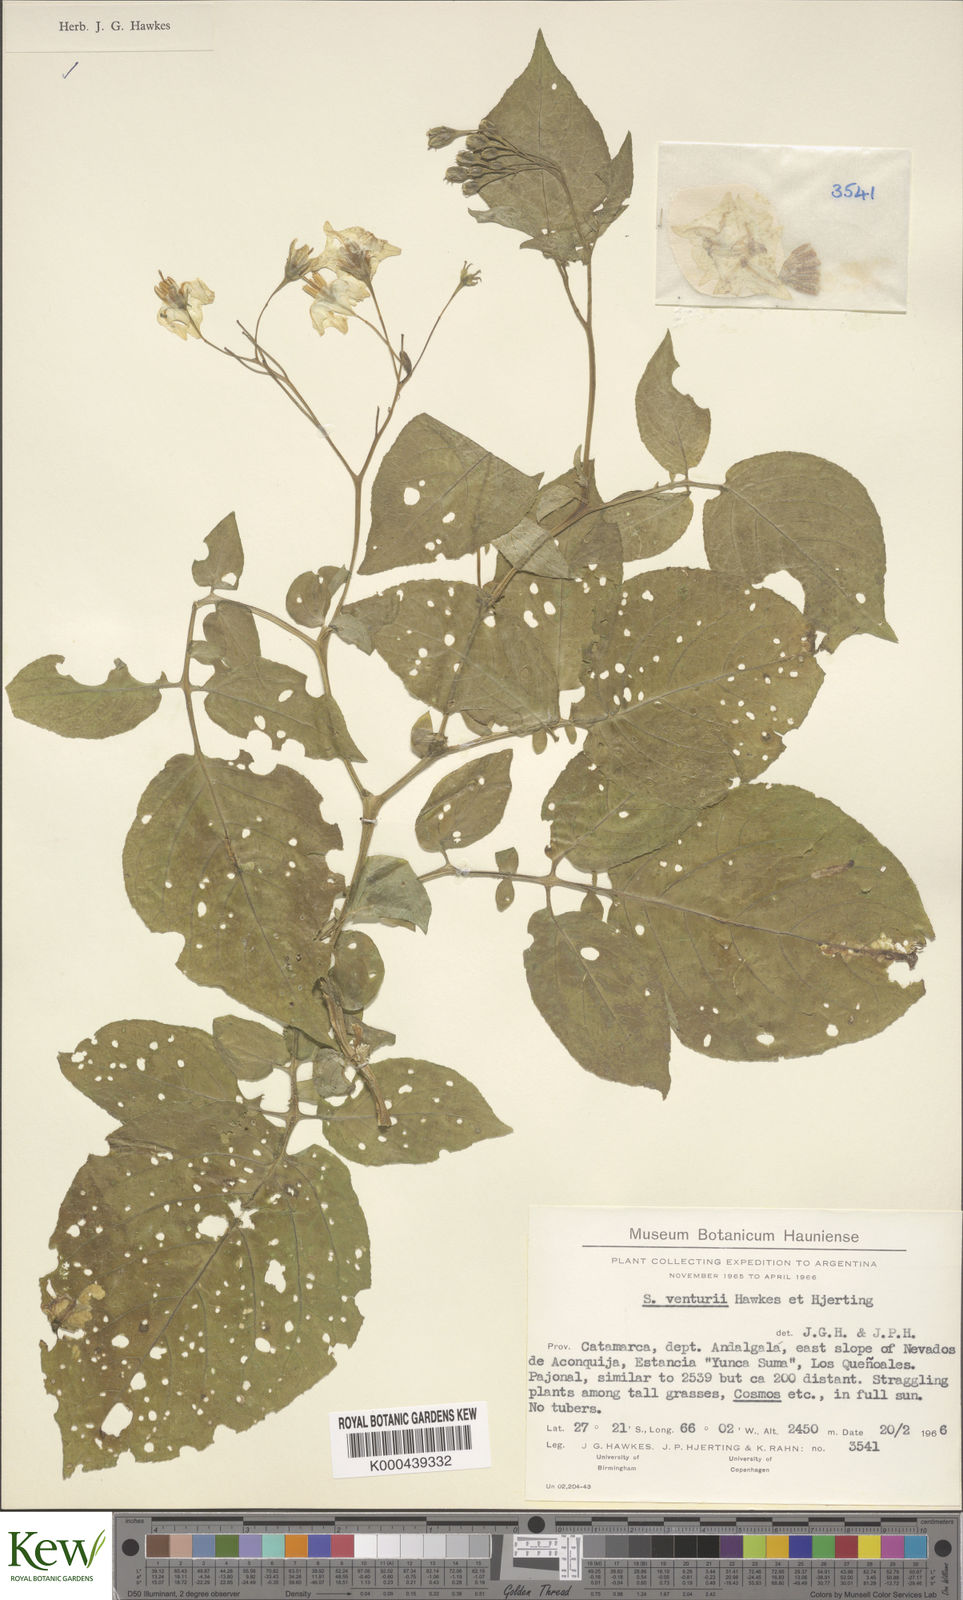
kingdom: Plantae
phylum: Tracheophyta
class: Magnoliopsida
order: Solanales
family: Solanaceae
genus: Solanum
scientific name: Solanum venturii
